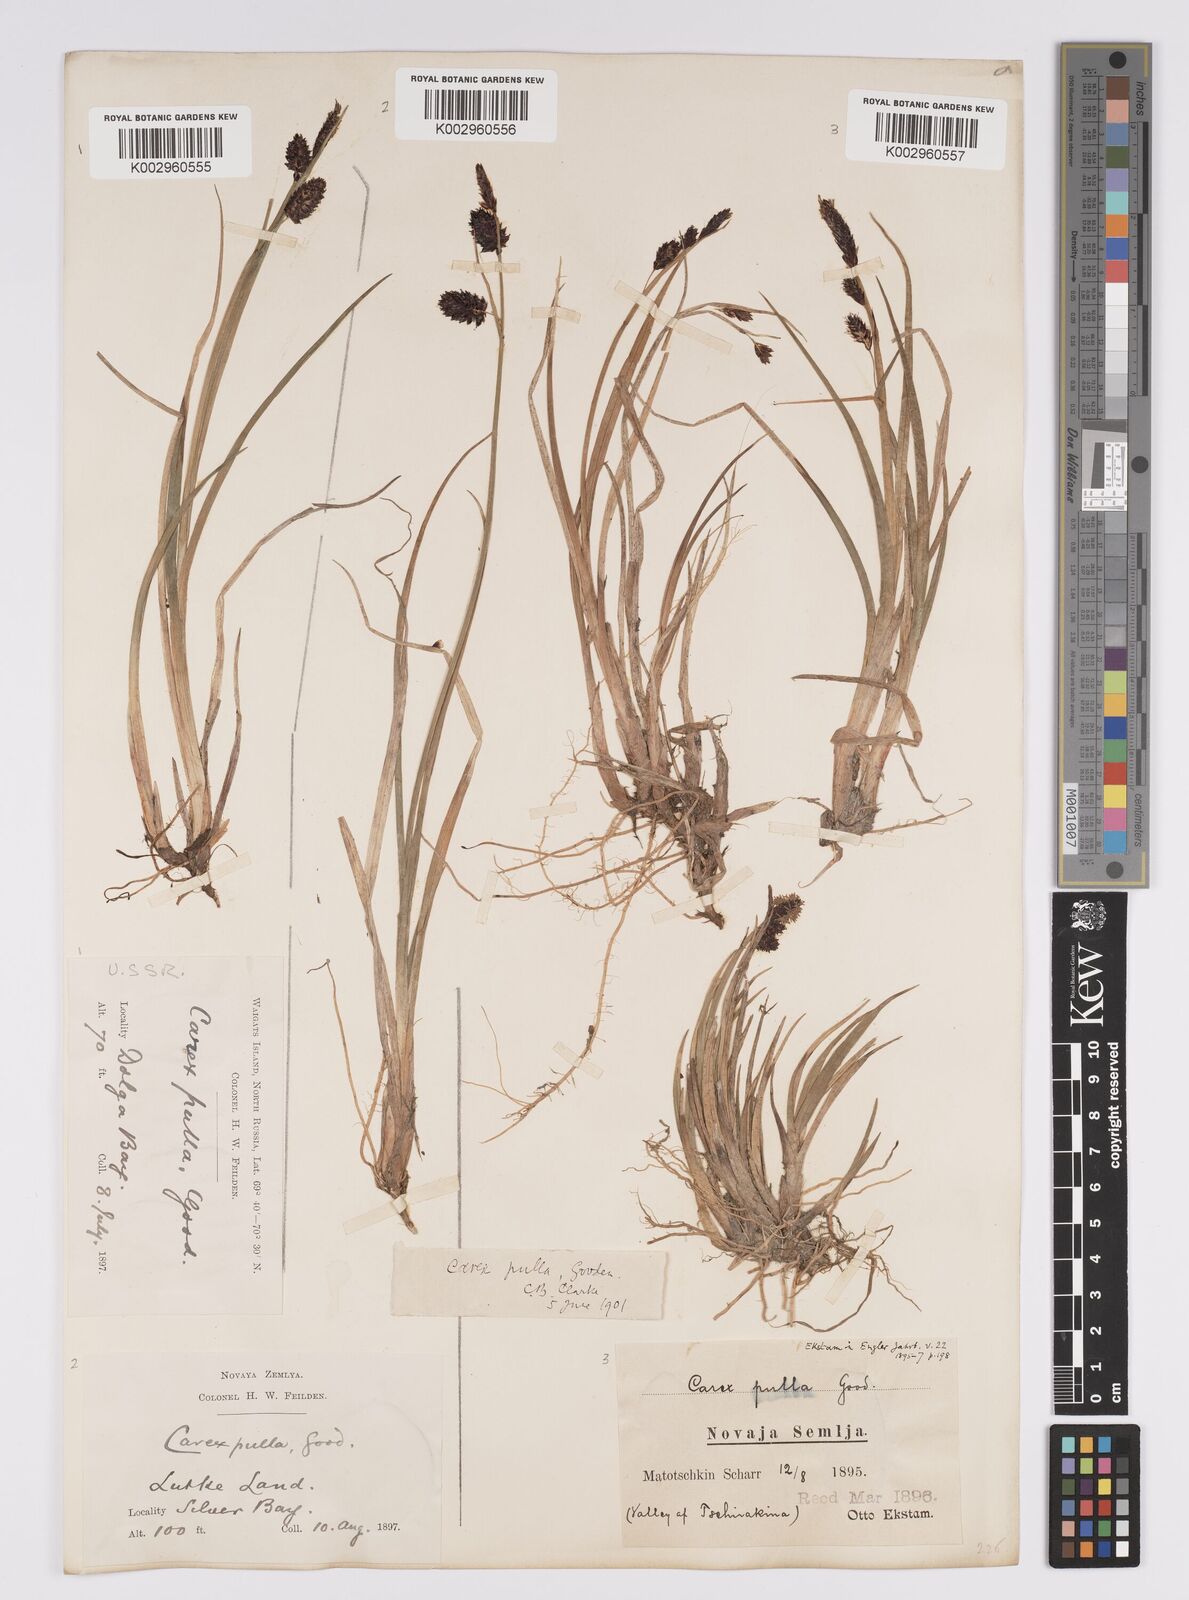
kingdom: Plantae
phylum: Tracheophyta
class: Liliopsida
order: Poales
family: Cyperaceae
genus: Carex
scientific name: Carex saxatilis
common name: Russet sedge
